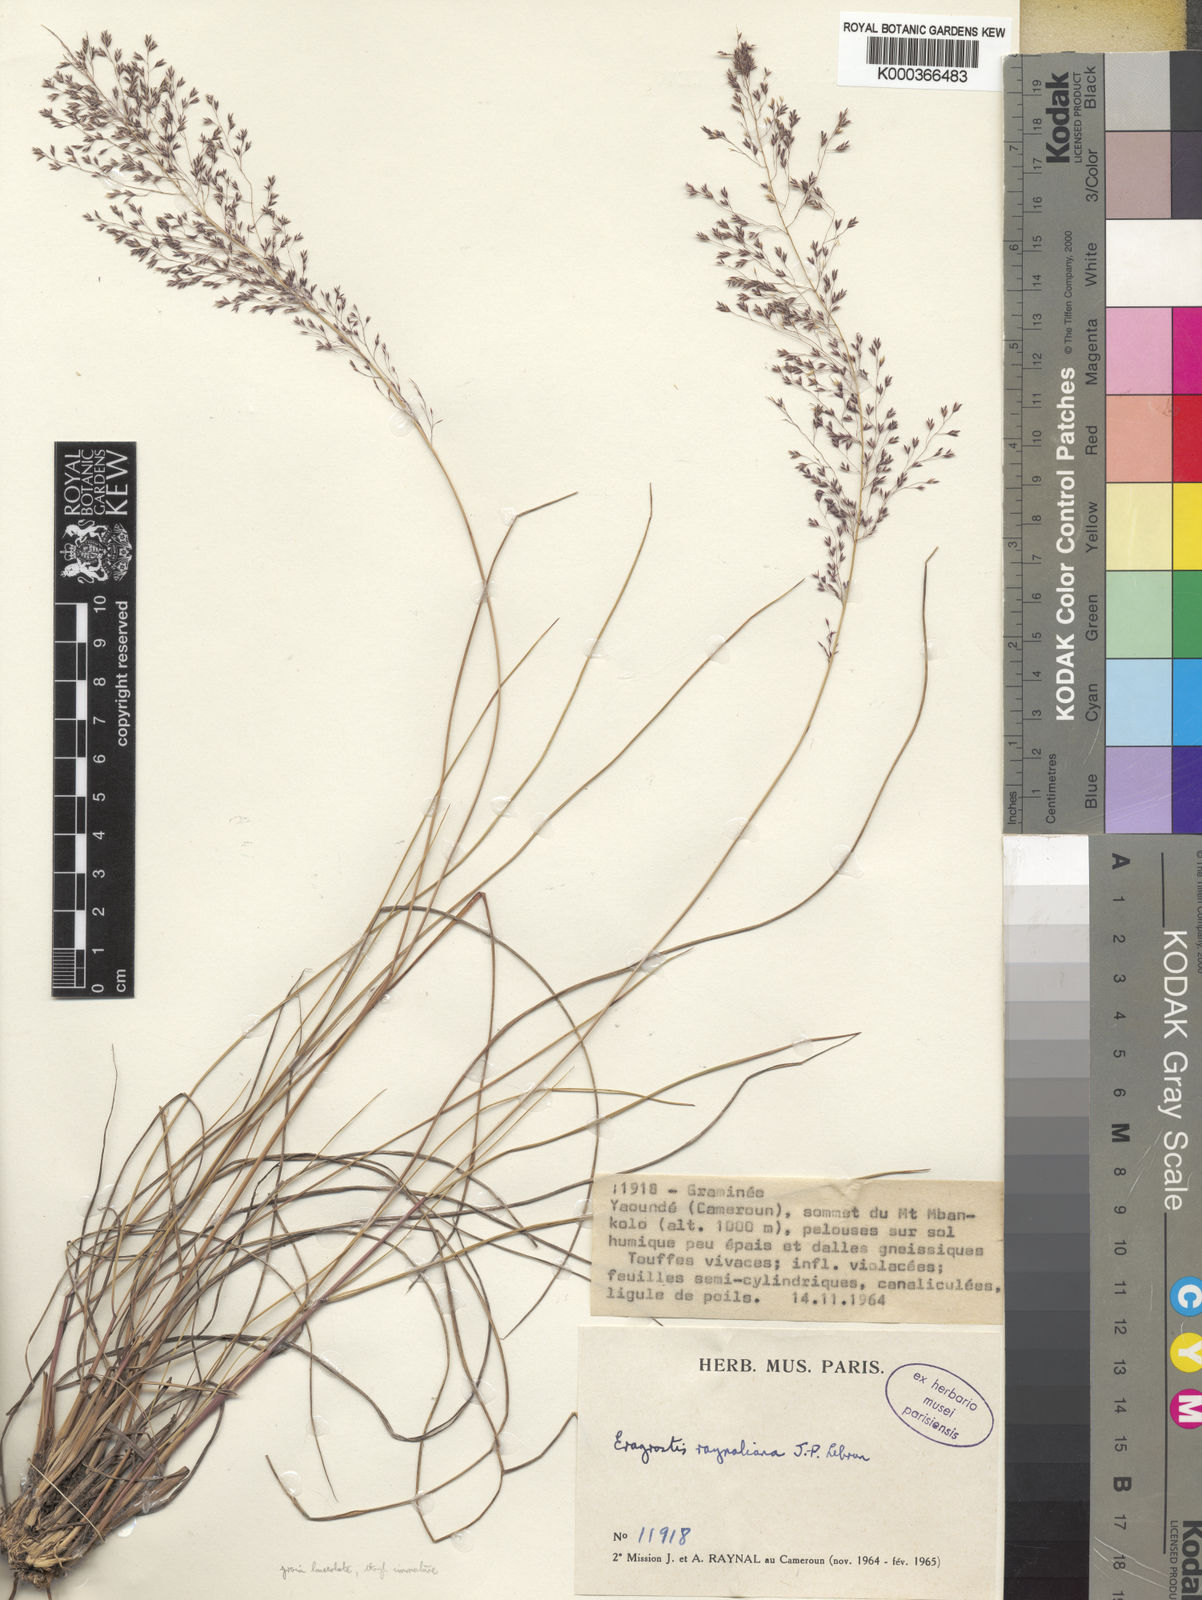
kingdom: Plantae
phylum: Tracheophyta
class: Liliopsida
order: Poales
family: Poaceae
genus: Eragrostis
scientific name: Eragrostis raynaliana
